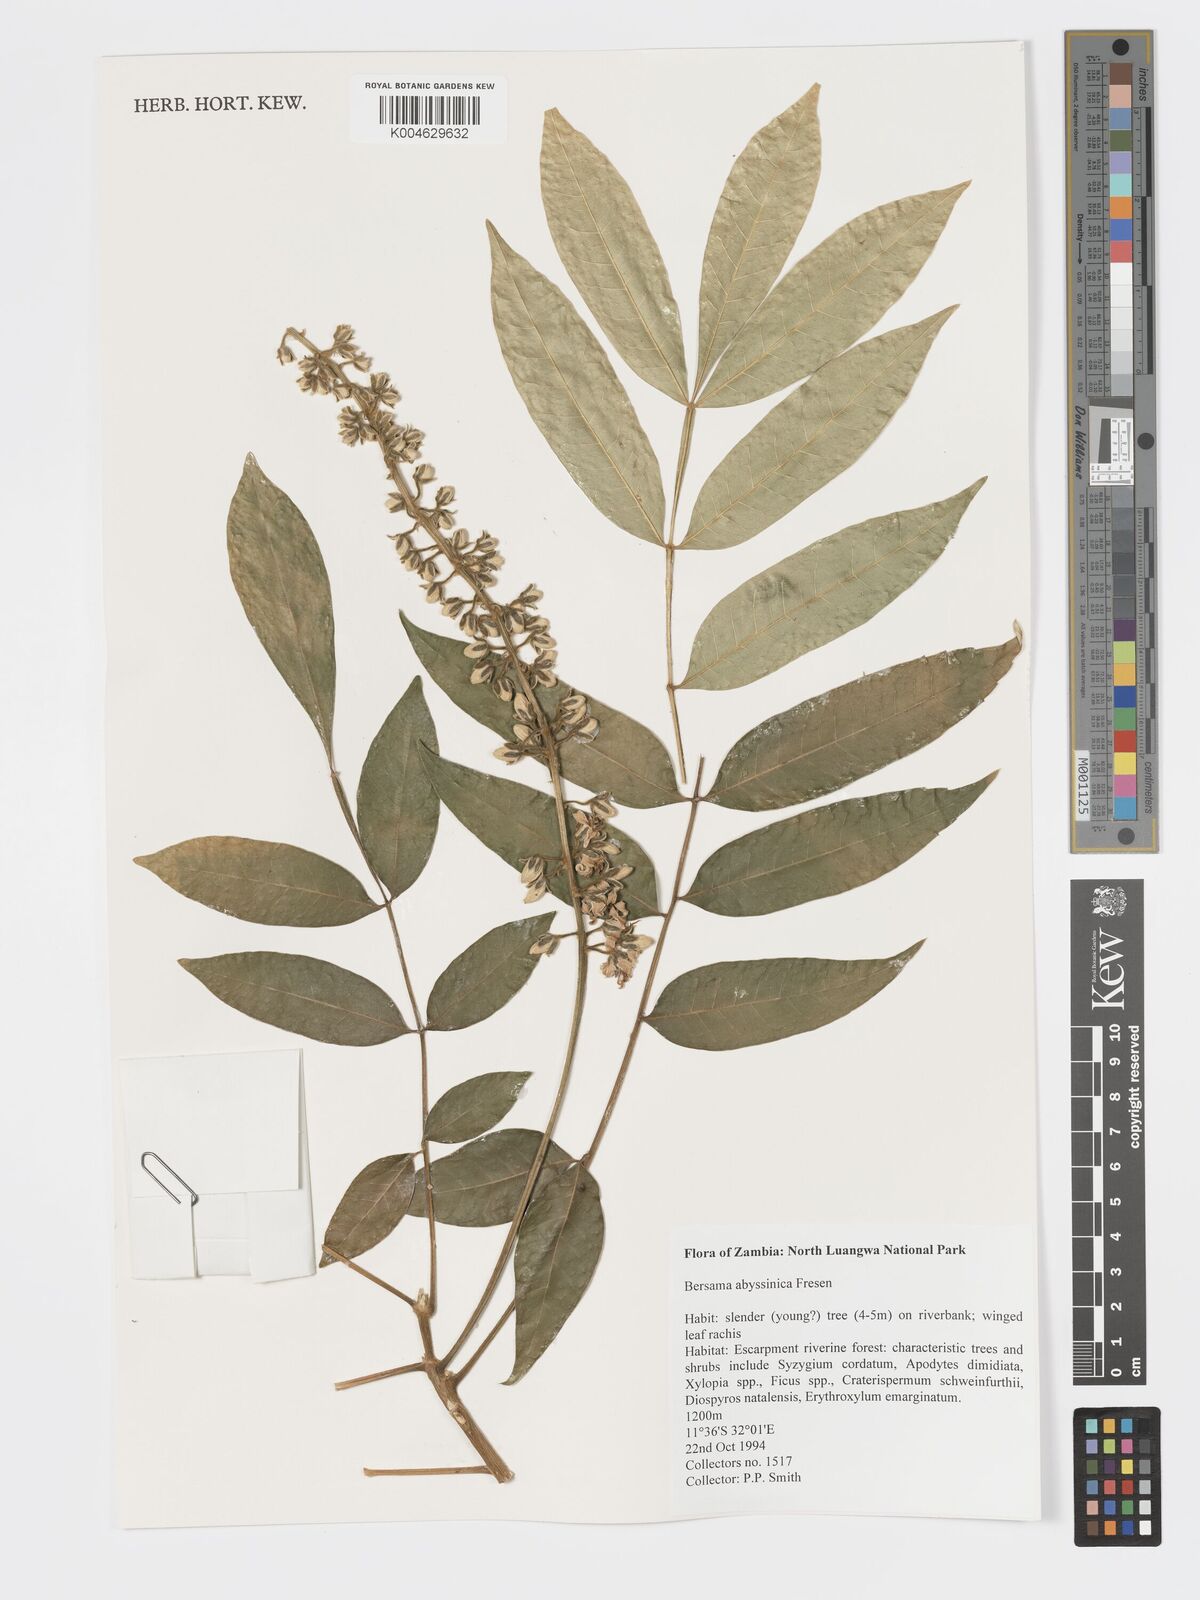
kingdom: Plantae
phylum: Tracheophyta
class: Magnoliopsida
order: Geraniales
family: Melianthaceae
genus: Bersama
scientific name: Bersama abyssinica
